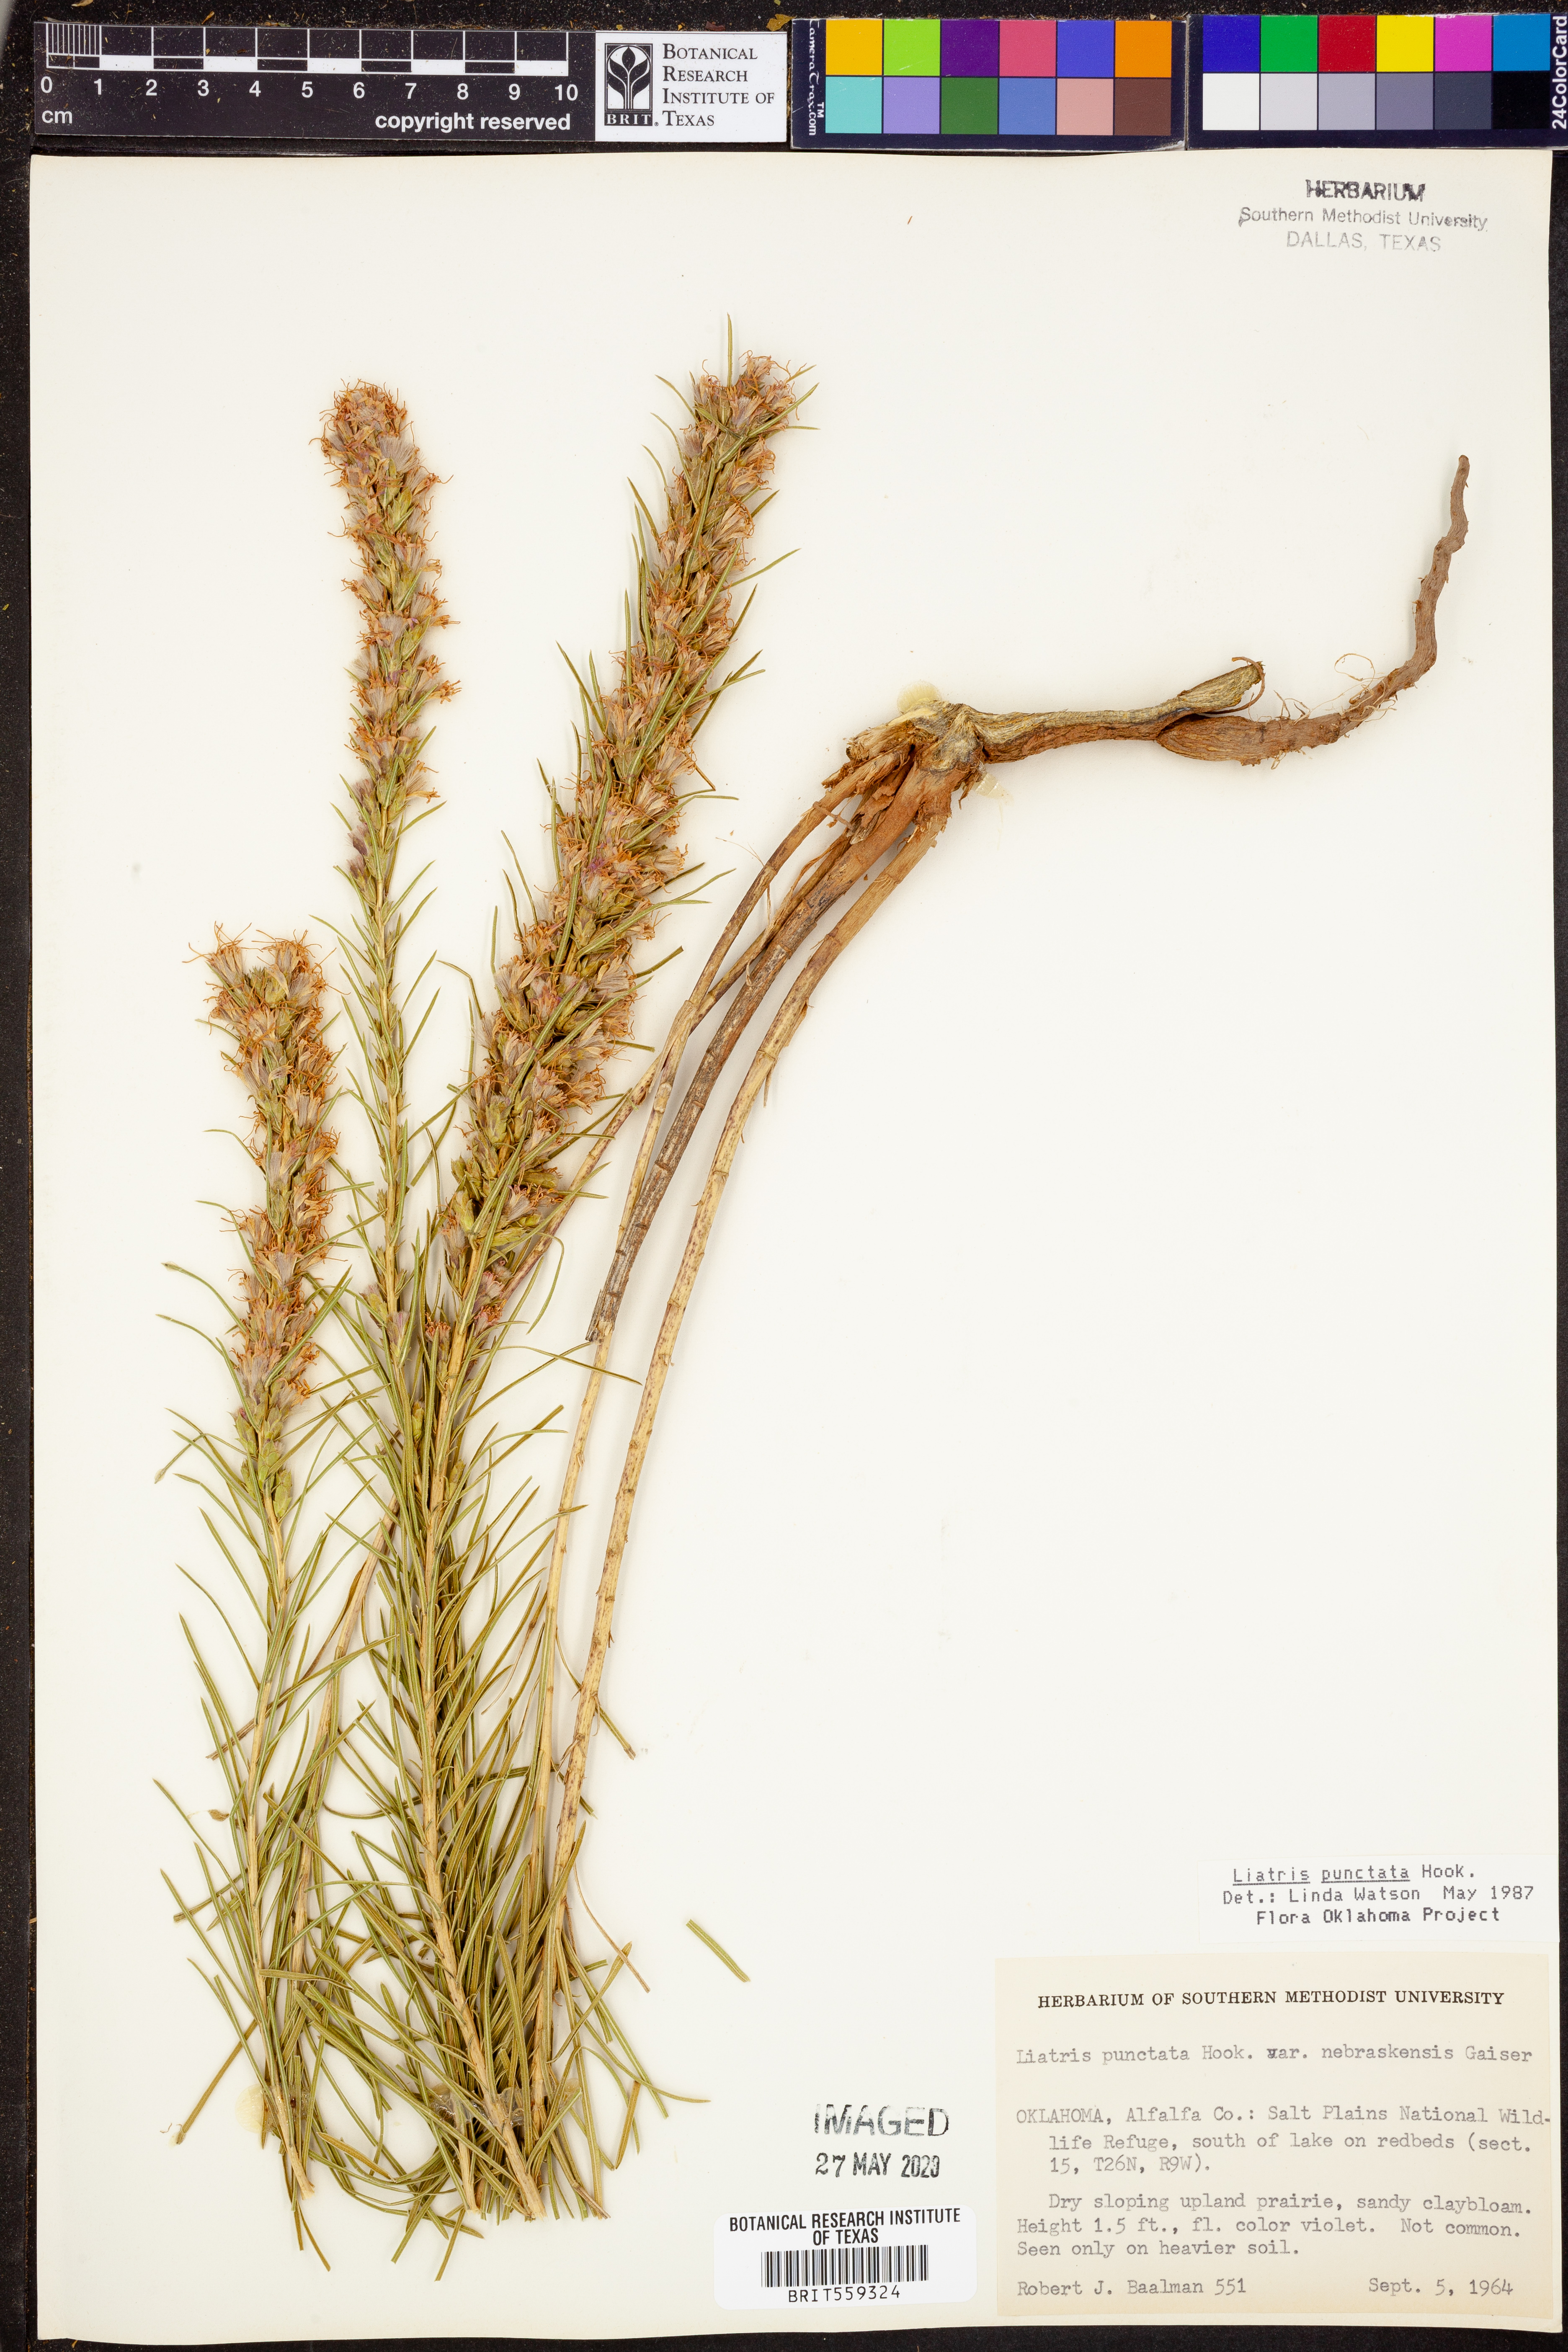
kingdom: Plantae
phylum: Tracheophyta
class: Magnoliopsida
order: Asterales
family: Asteraceae
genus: Liatris
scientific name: Liatris punctata
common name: Dotted gayfeather
